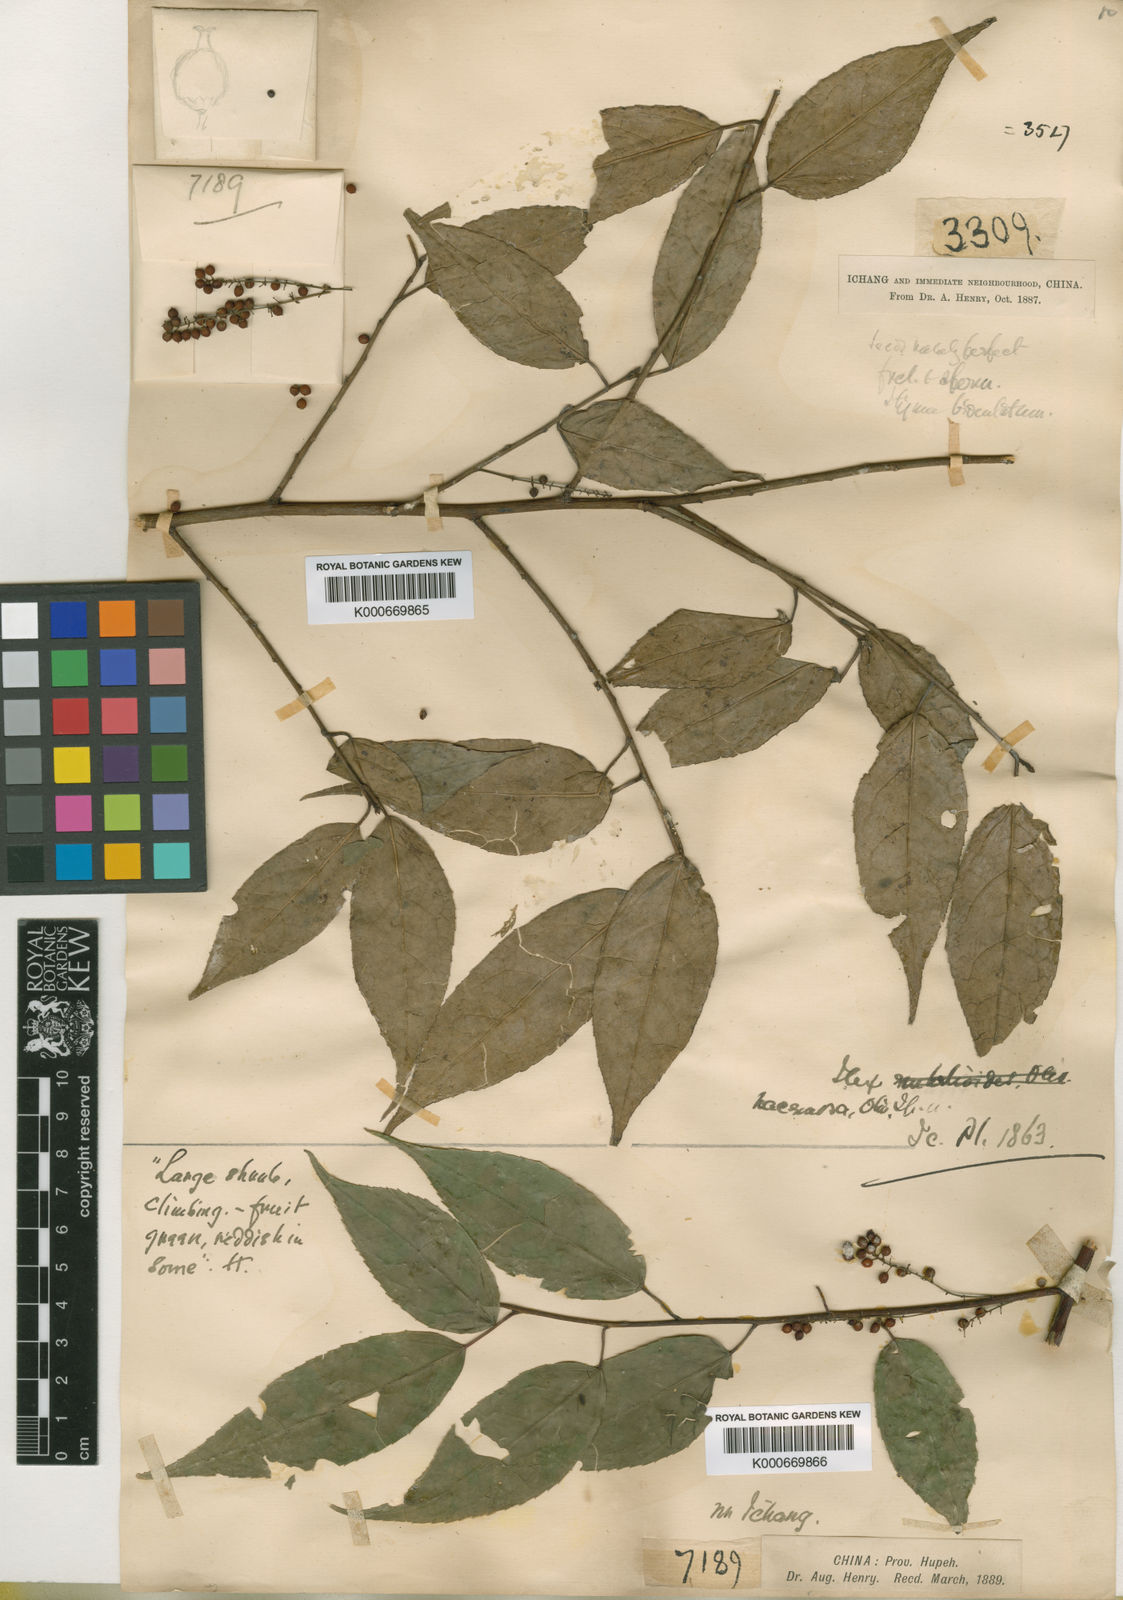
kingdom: Plantae
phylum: Tracheophyta
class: Magnoliopsida
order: Huerteales
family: Dipentodontaceae
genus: Perrottetia
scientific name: Perrottetia racemosa
